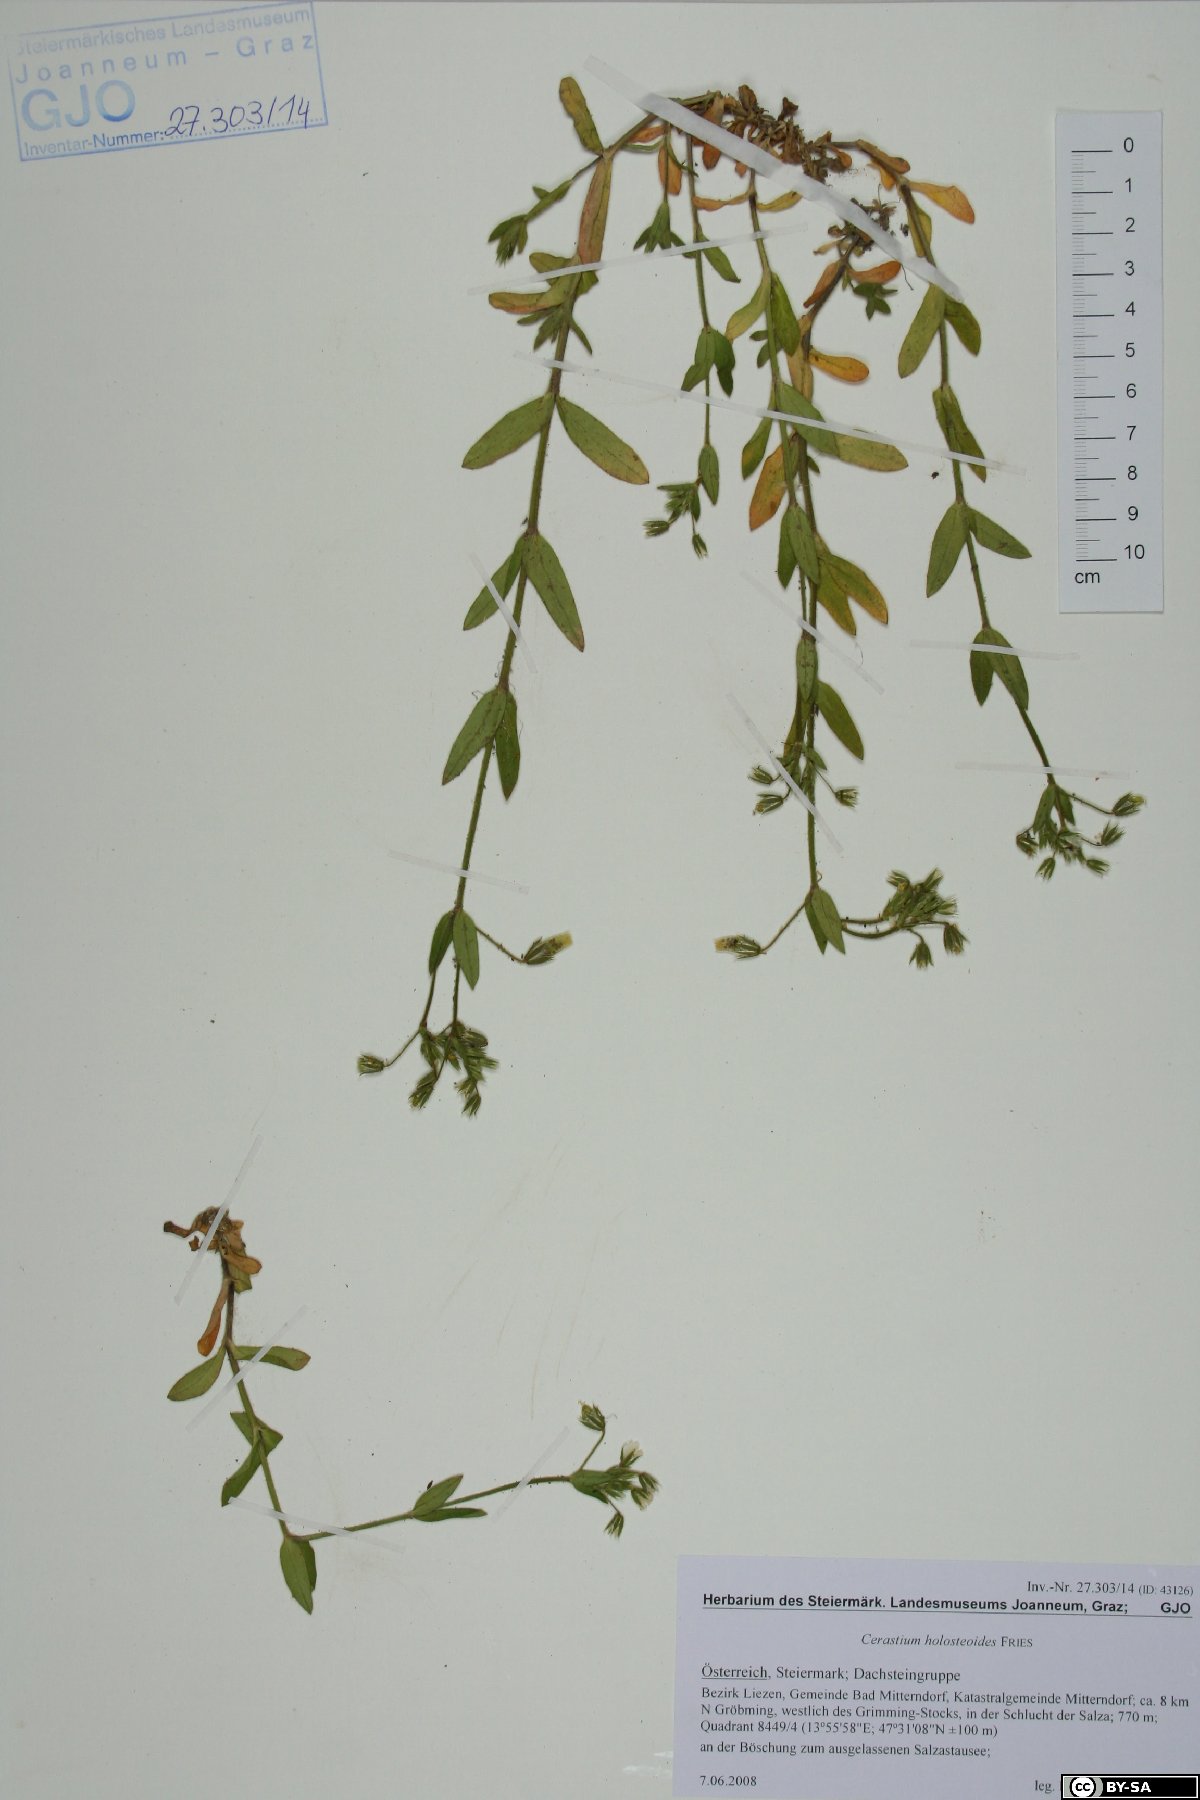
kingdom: Plantae
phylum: Tracheophyta
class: Magnoliopsida
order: Caryophyllales
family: Caryophyllaceae
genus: Cerastium
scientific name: Cerastium holosteoides
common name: Big chickweed
